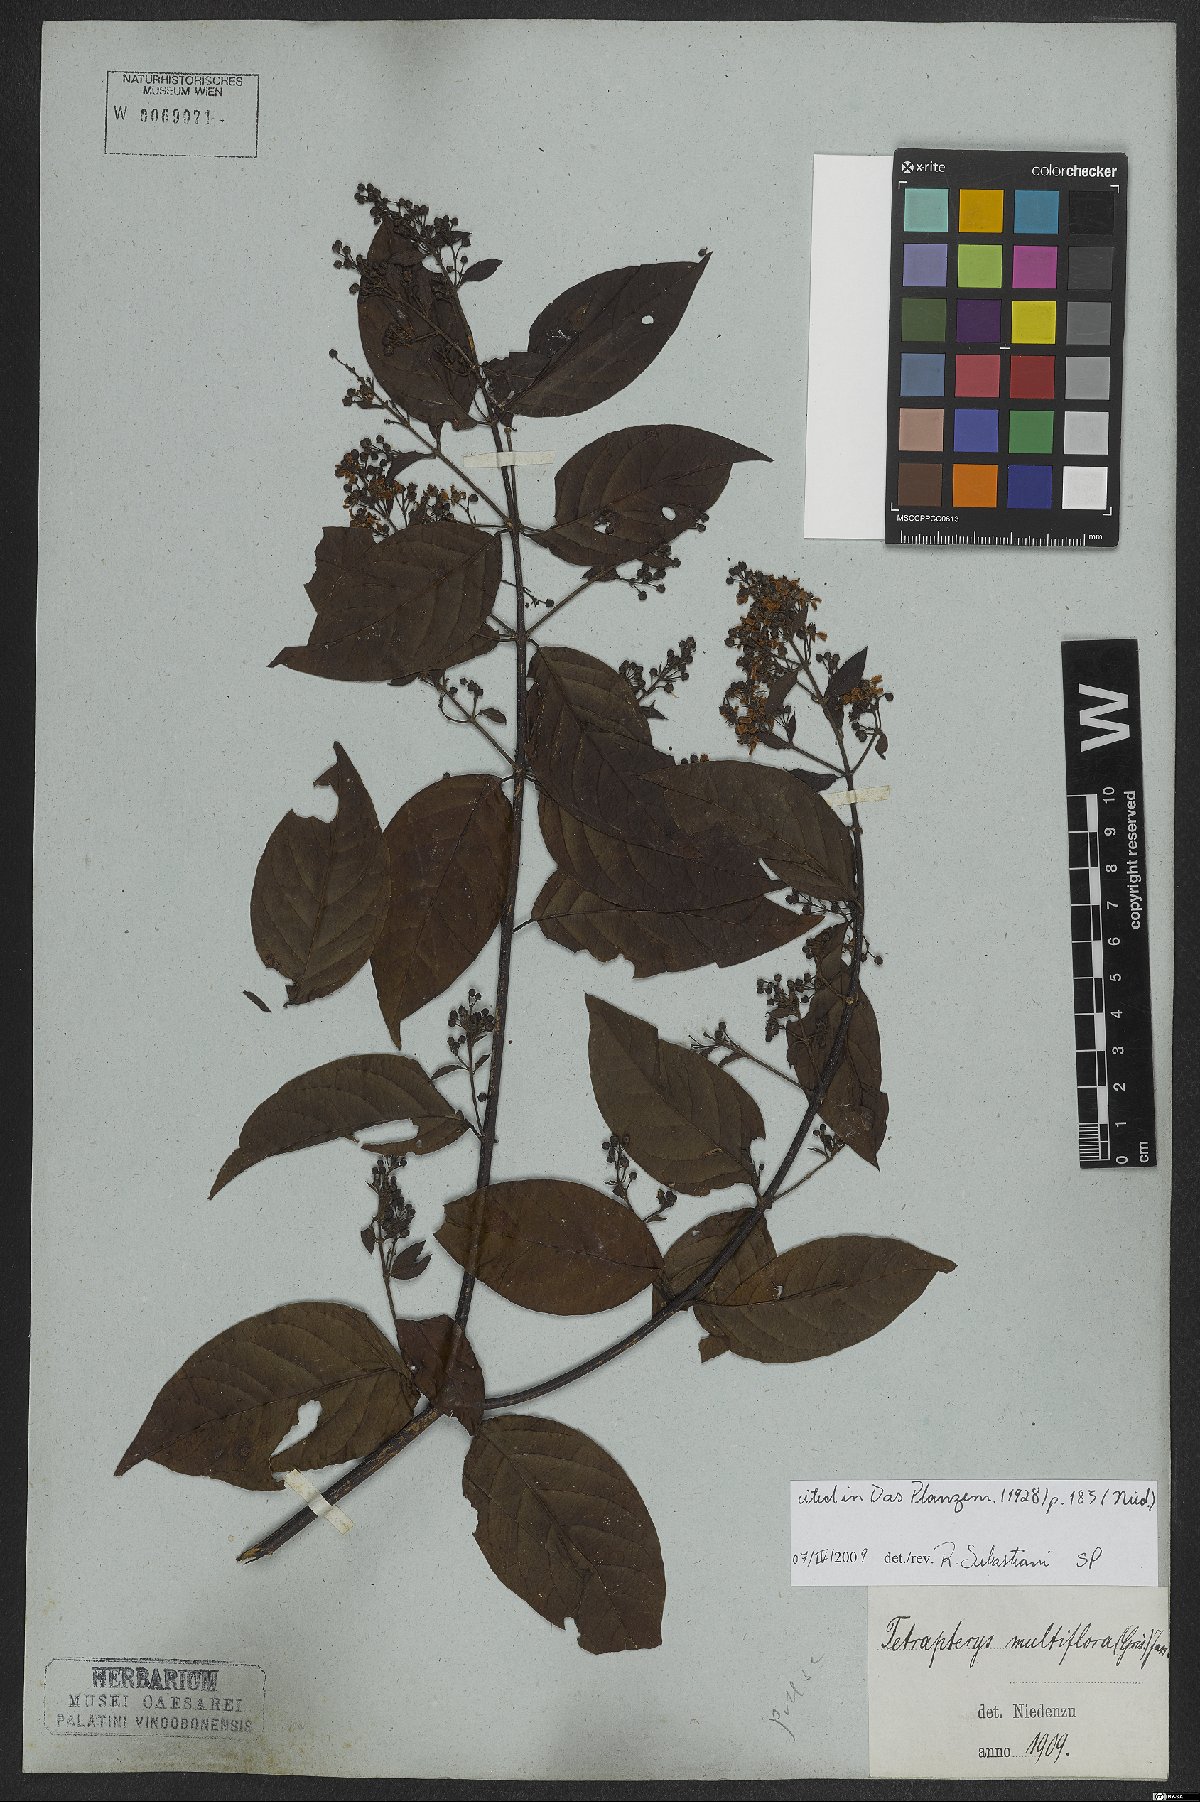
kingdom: Plantae
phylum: Tracheophyta
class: Magnoliopsida
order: Malpighiales
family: Malpighiaceae
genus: Niedenzuella
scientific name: Niedenzuella mogoriifolia
